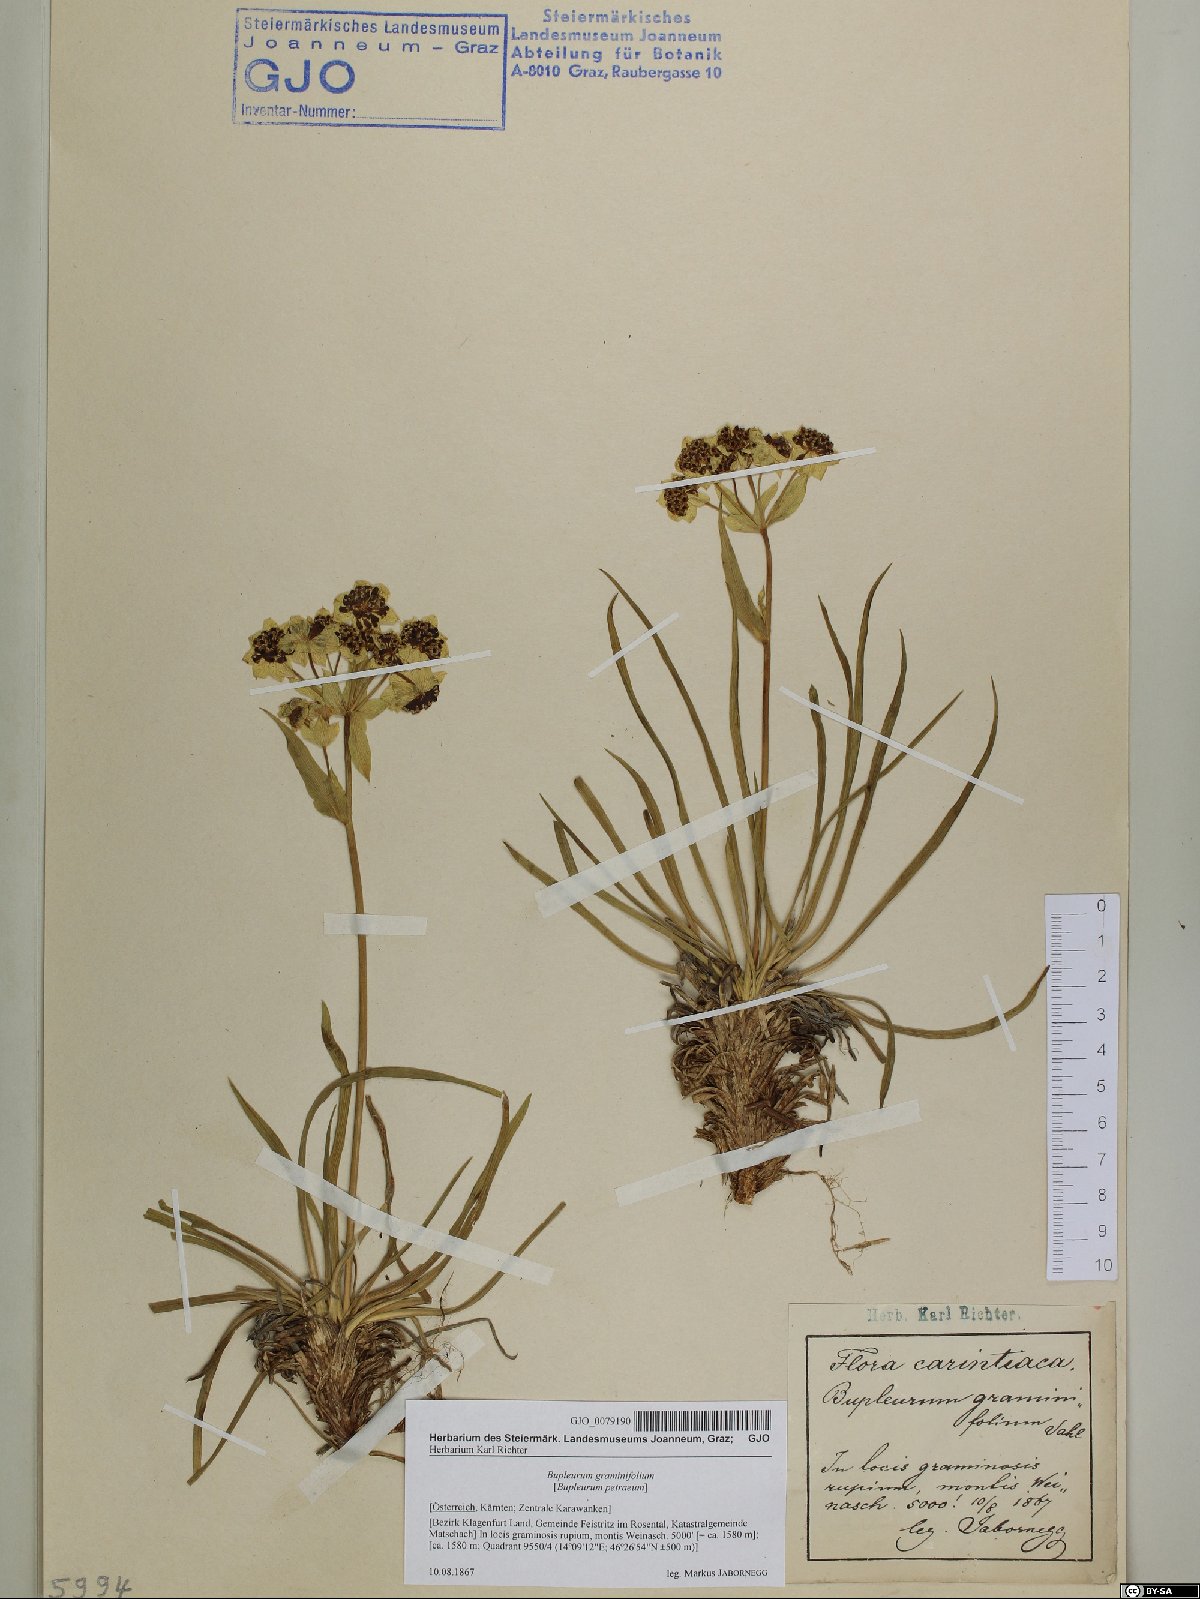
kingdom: Plantae
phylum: Tracheophyta
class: Magnoliopsida
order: Apiales
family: Apiaceae
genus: Bupleurum
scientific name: Bupleurum petraeum
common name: Rock hare's-ear
